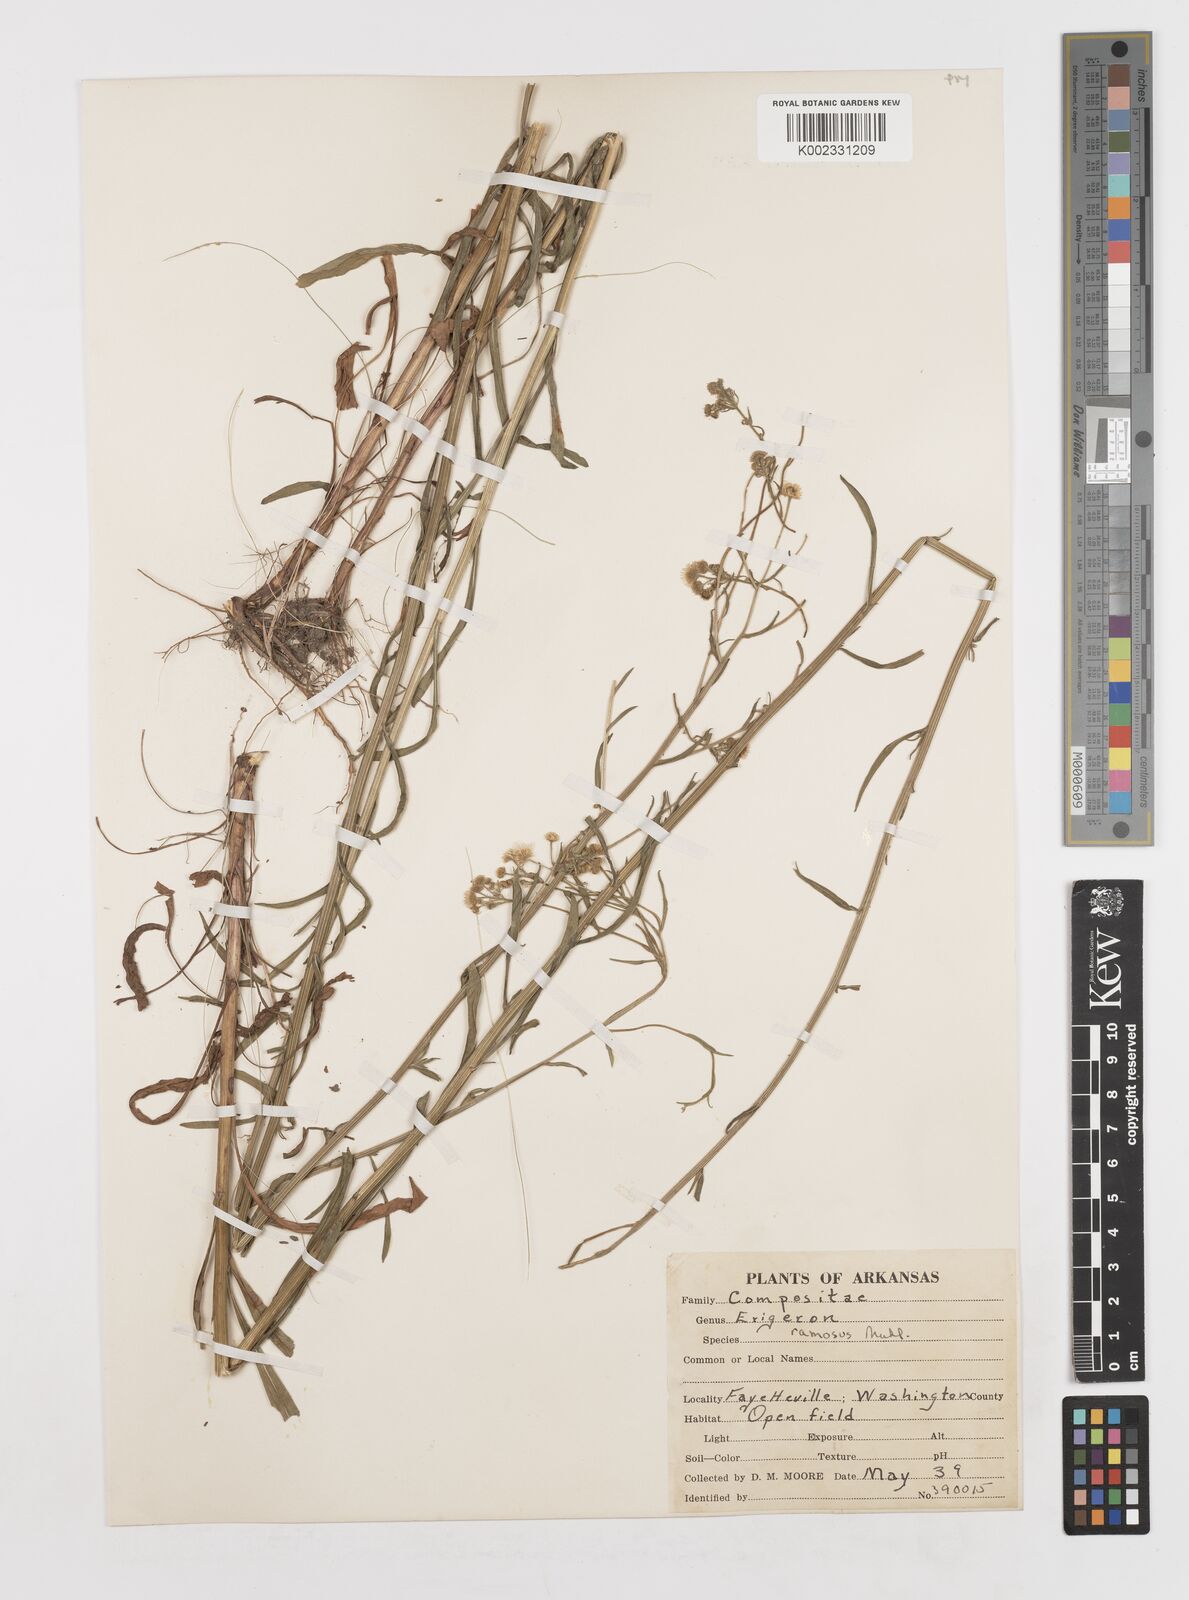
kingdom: Plantae
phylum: Tracheophyta
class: Magnoliopsida
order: Asterales
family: Asteraceae
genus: Erigeron
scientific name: Erigeron annuus
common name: Tall fleabane
